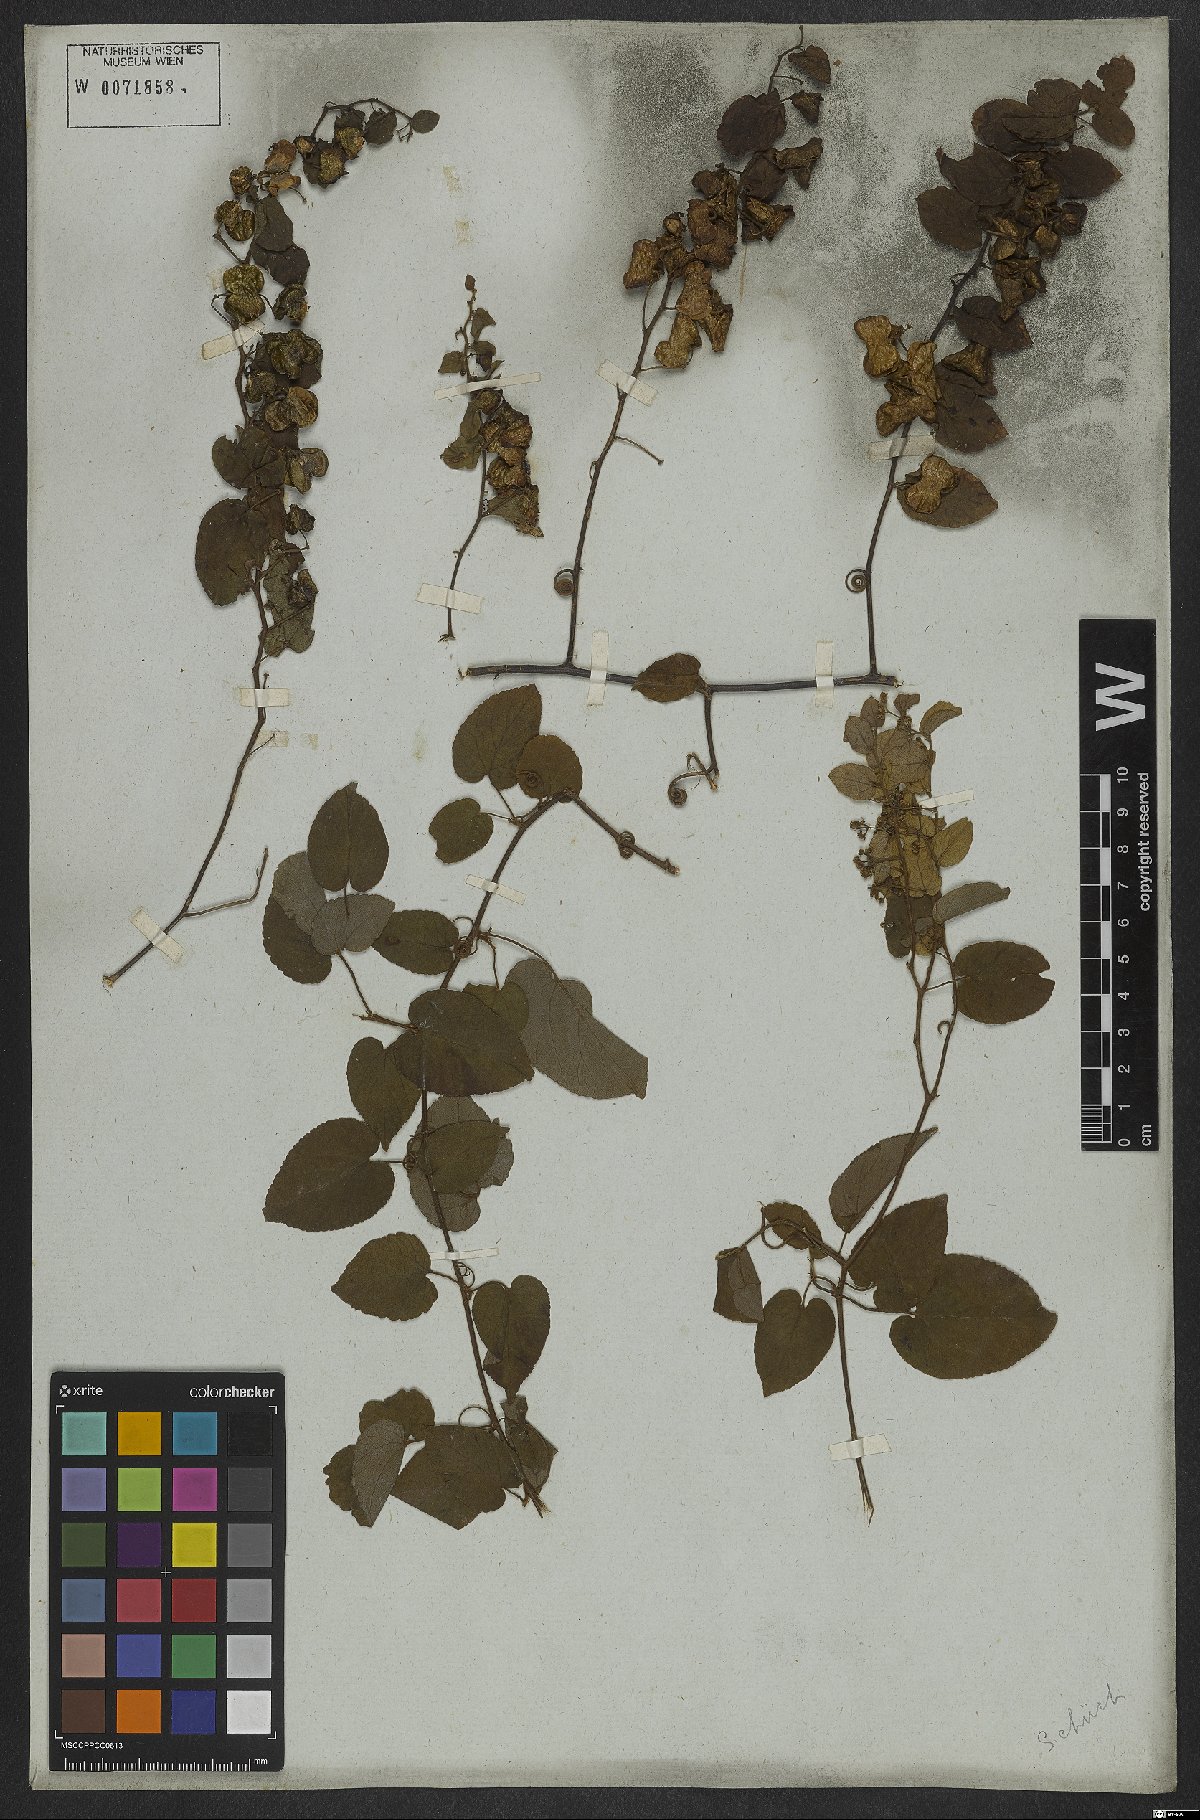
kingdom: Plantae
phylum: Tracheophyta
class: Magnoliopsida
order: Rosales
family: Rhamnaceae
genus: Reissekia
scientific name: Reissekia smilacina
